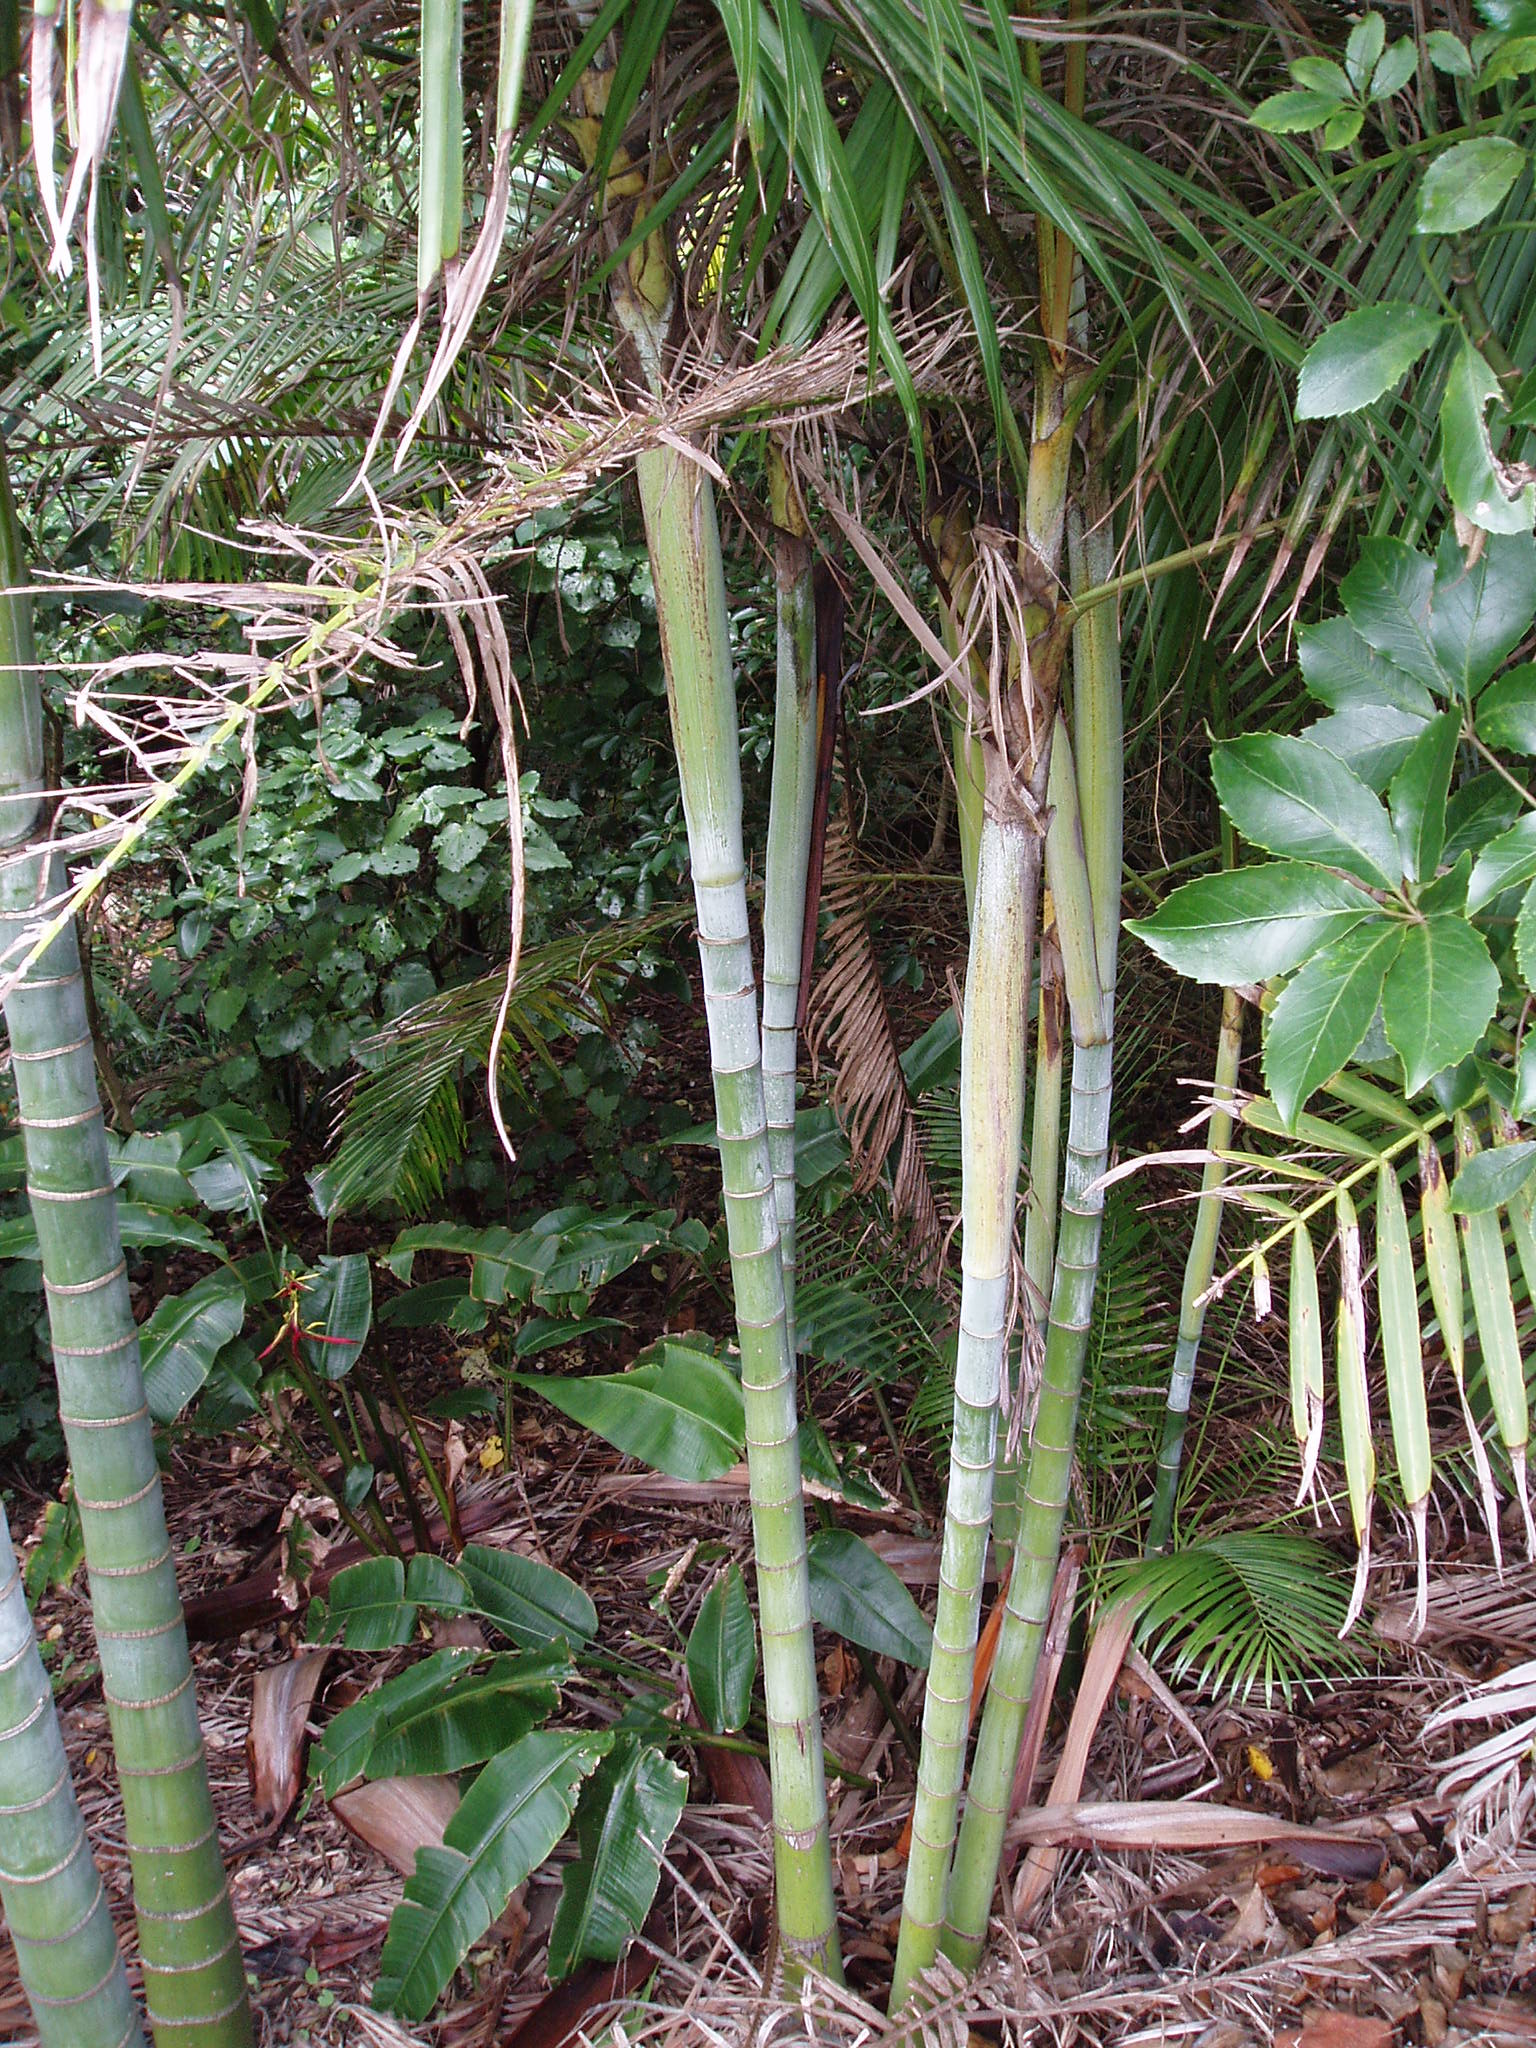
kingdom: Plantae
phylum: Bryophyta
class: Bryopsida
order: Hypnales
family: Cryphaeaceae
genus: Cryphaea
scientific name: Cryphaea ovalifolia
